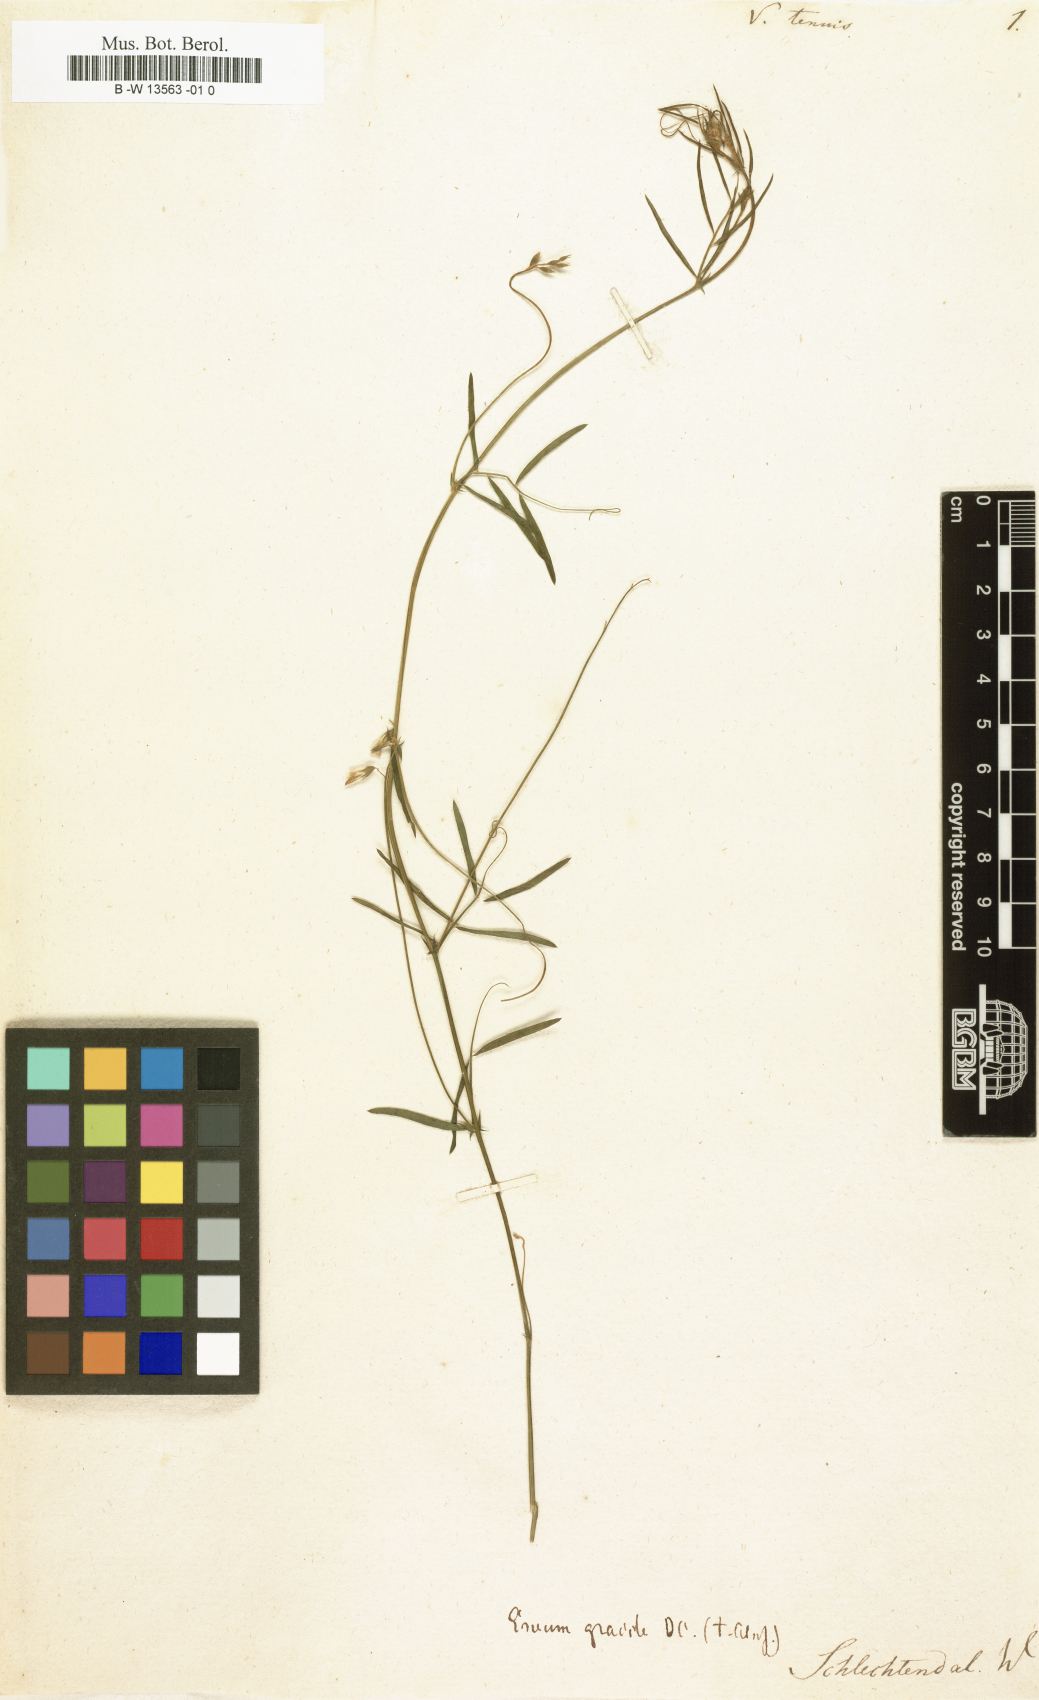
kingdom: Plantae
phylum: Tracheophyta
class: Magnoliopsida
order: Fabales
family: Fabaceae
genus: Vicia
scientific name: Vicia tenoi
